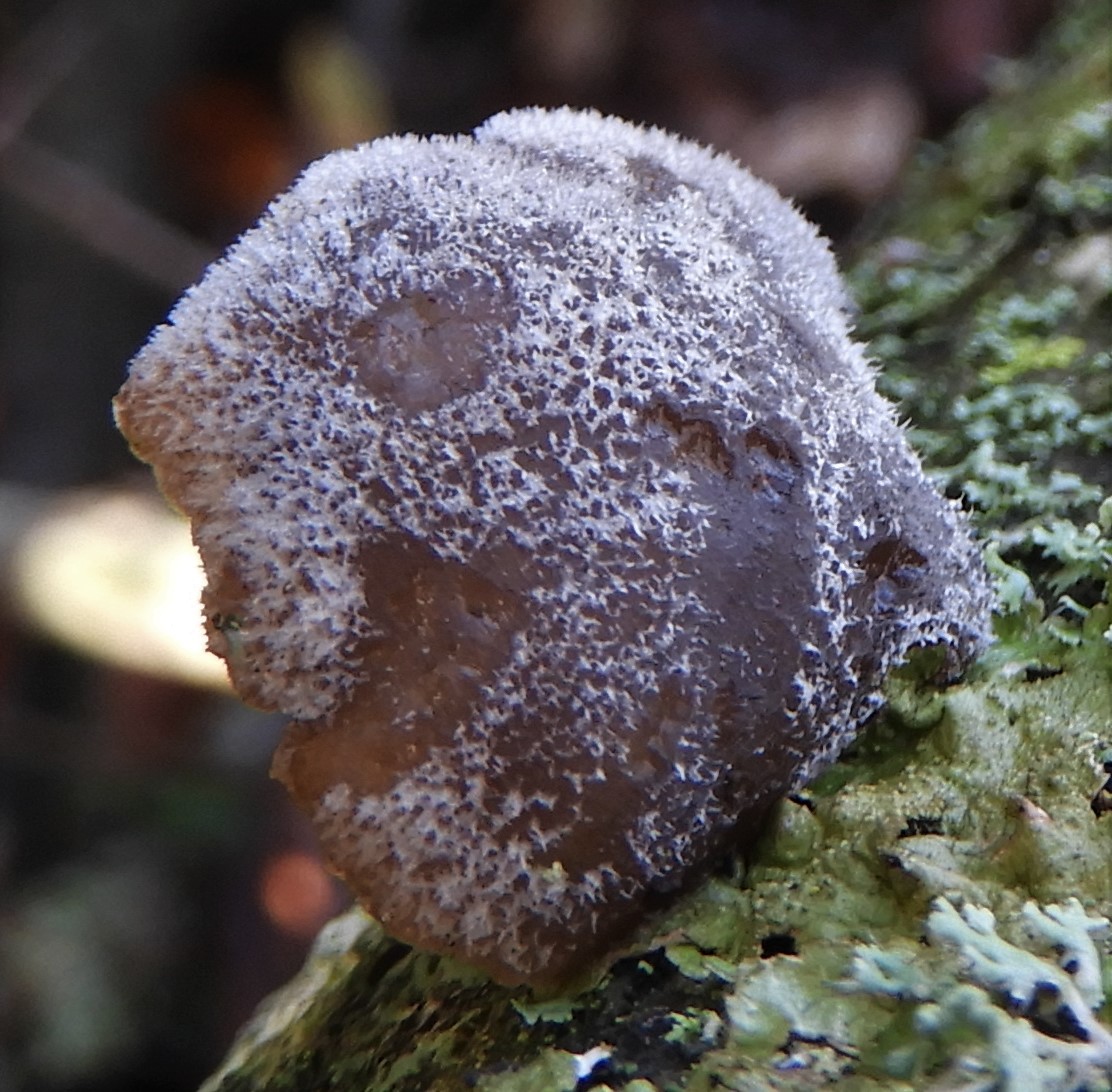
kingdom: Fungi
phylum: Basidiomycota
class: Agaricomycetes
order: Agaricales
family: Pleurotaceae
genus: Hohenbuehelia
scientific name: Hohenbuehelia
